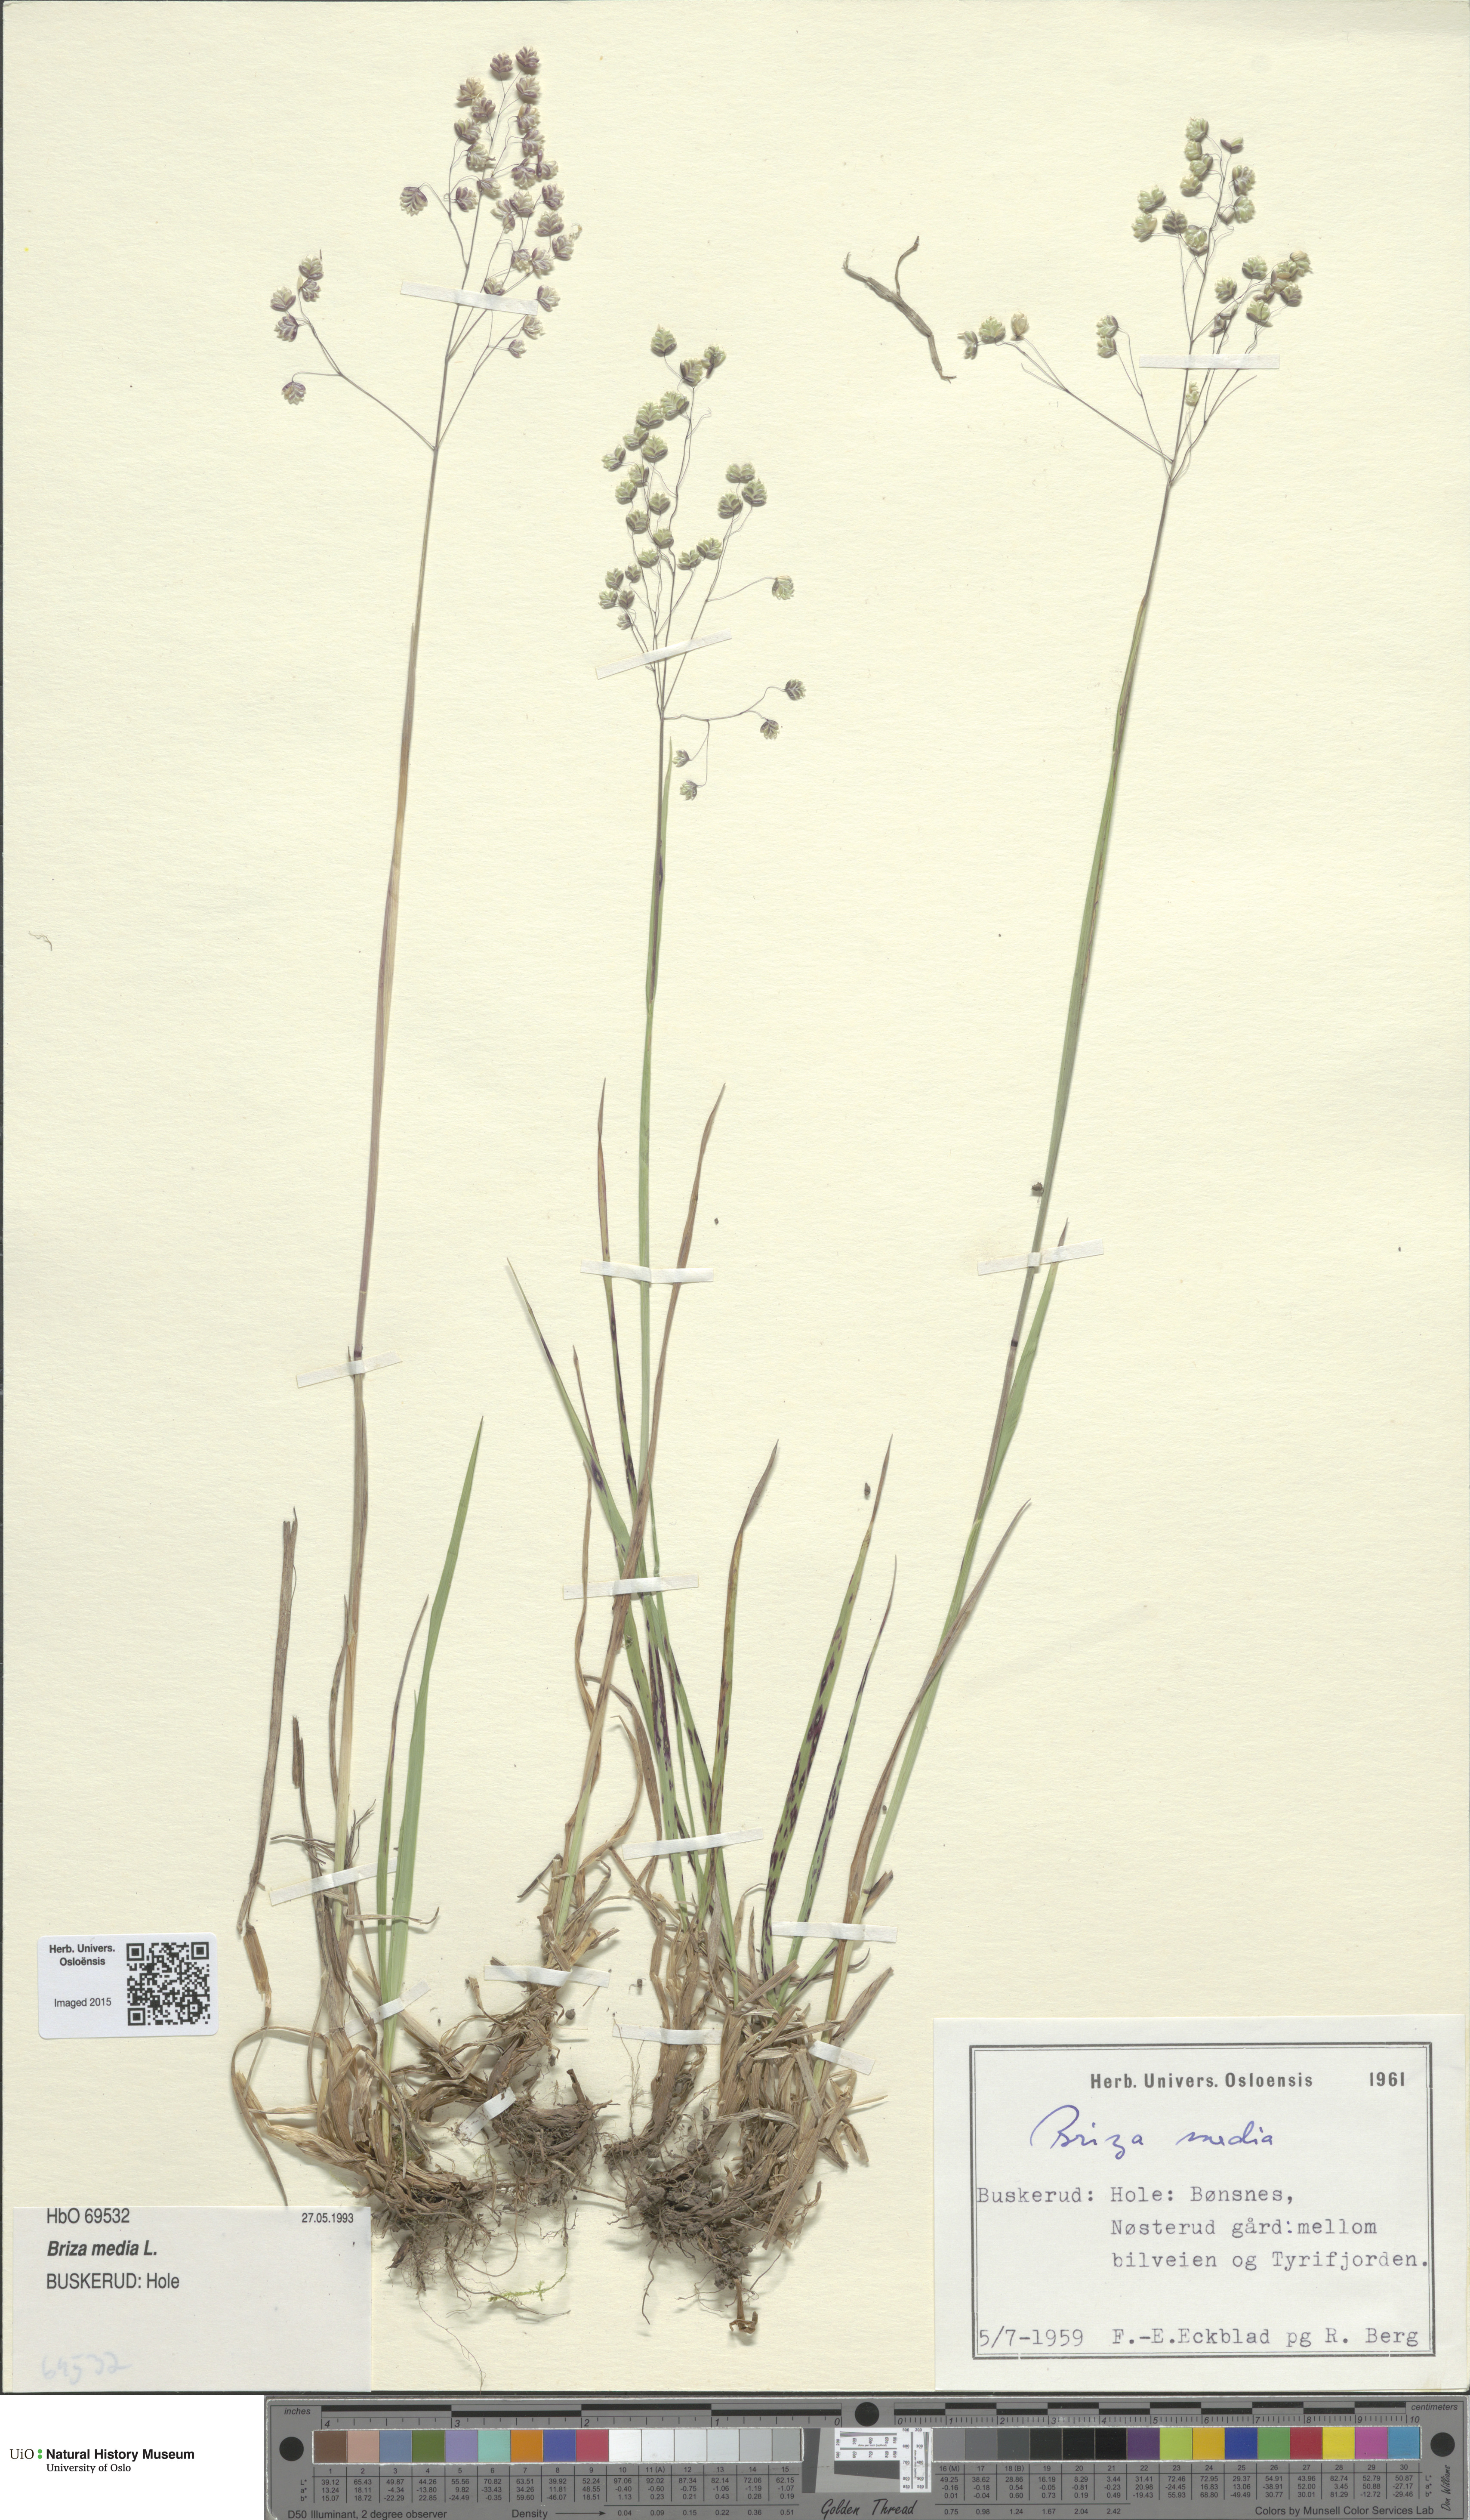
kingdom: Plantae
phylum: Tracheophyta
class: Liliopsida
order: Poales
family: Poaceae
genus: Briza
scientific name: Briza media
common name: Quaking grass
